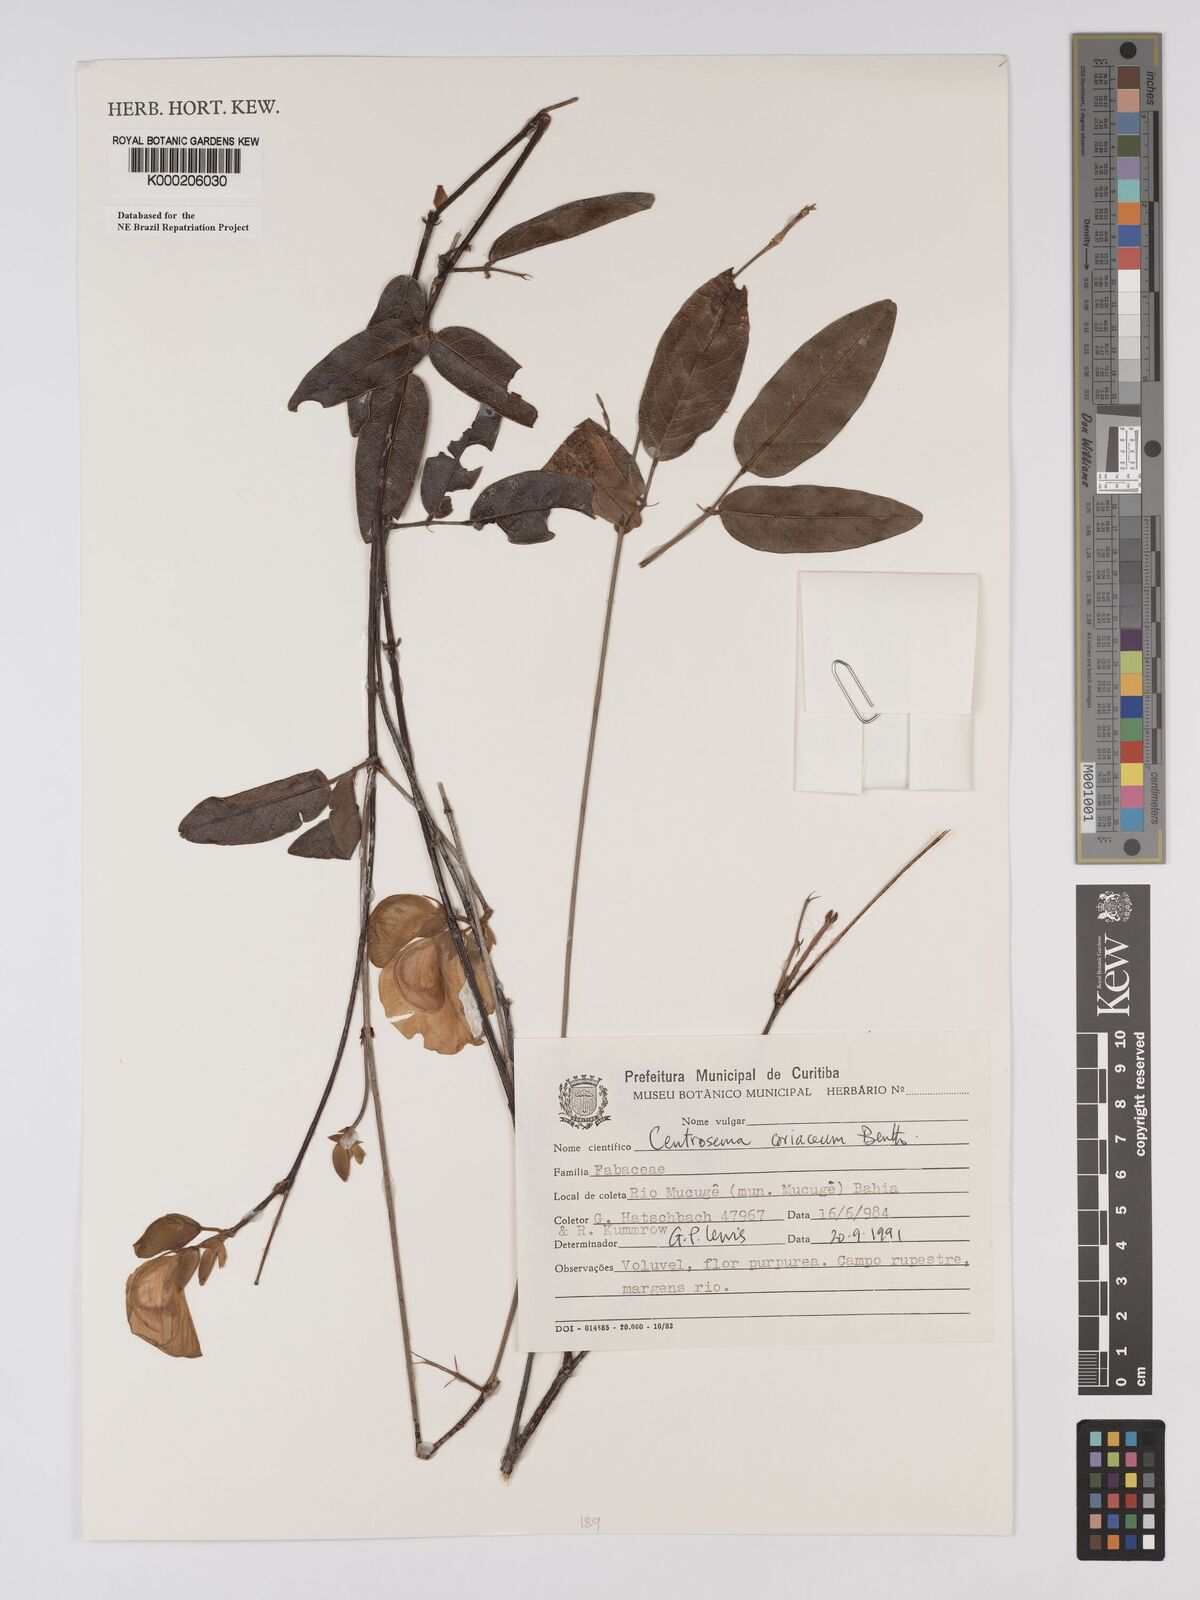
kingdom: Plantae
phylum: Tracheophyta
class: Magnoliopsida
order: Fabales
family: Fabaceae
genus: Centrosema
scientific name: Centrosema coriaceum
